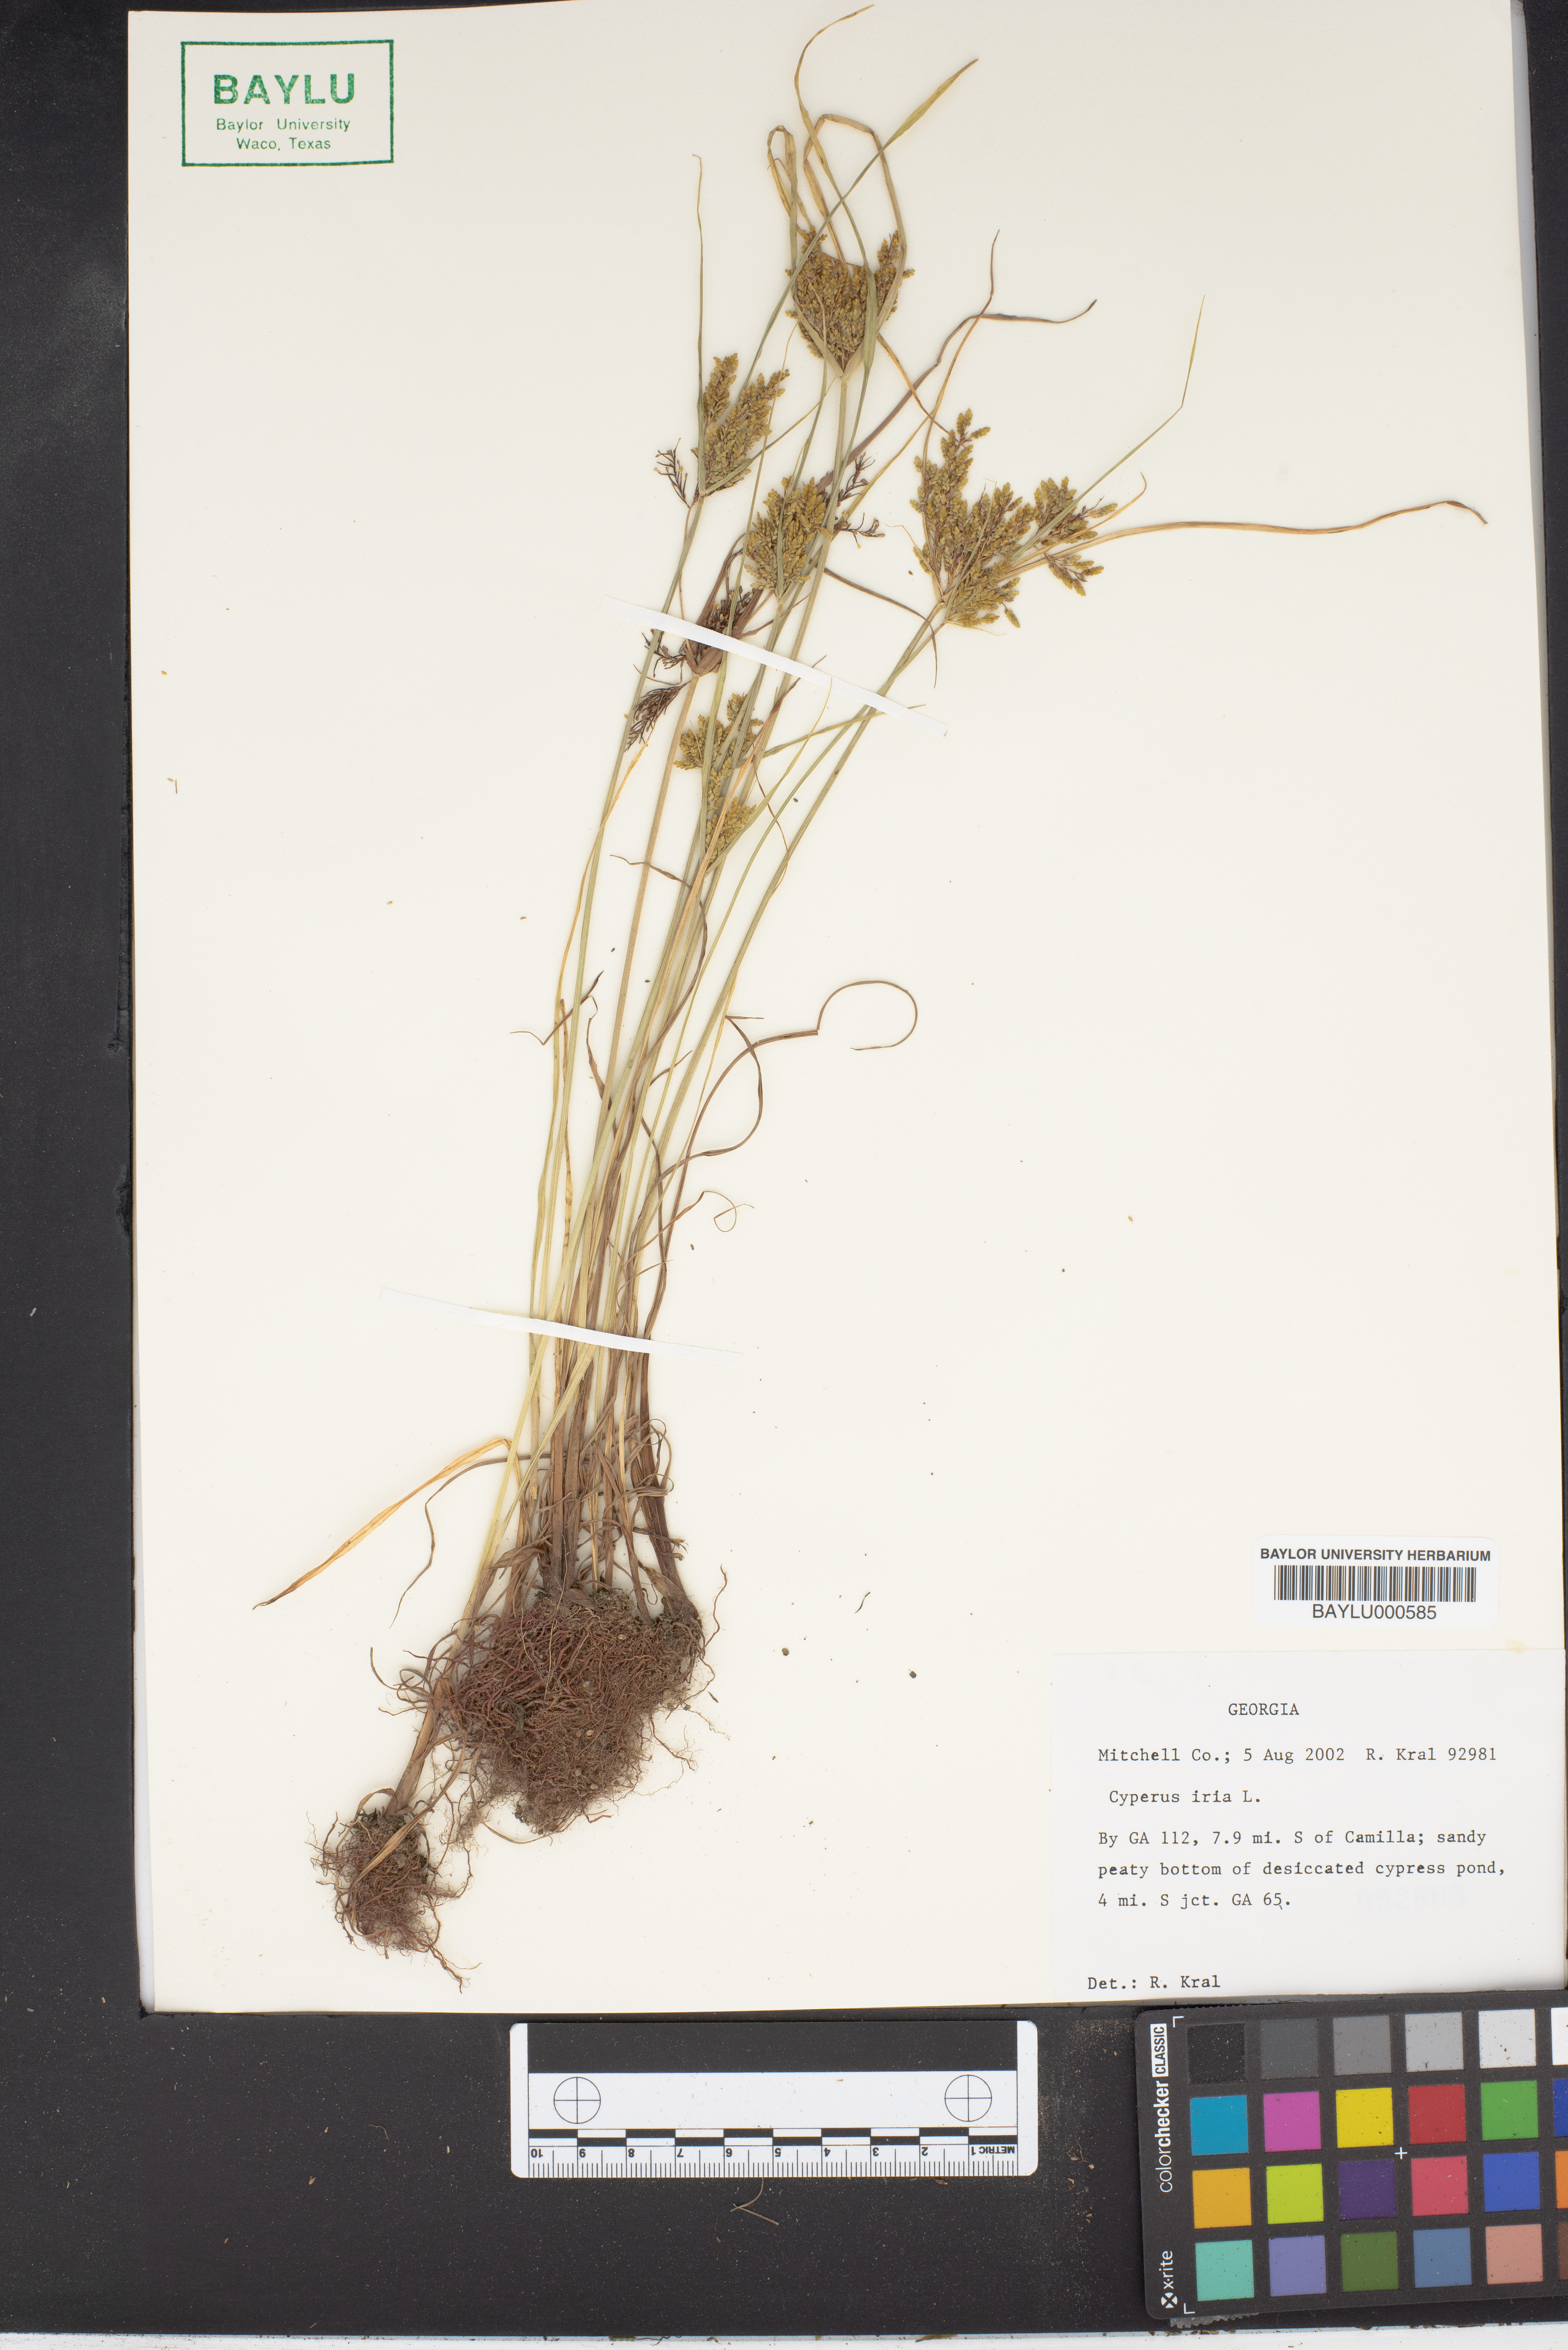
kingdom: Plantae
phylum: Tracheophyta
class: Liliopsida
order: Poales
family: Cyperaceae
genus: Cyperus
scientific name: Cyperus iria
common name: Ricefield flatsedge
